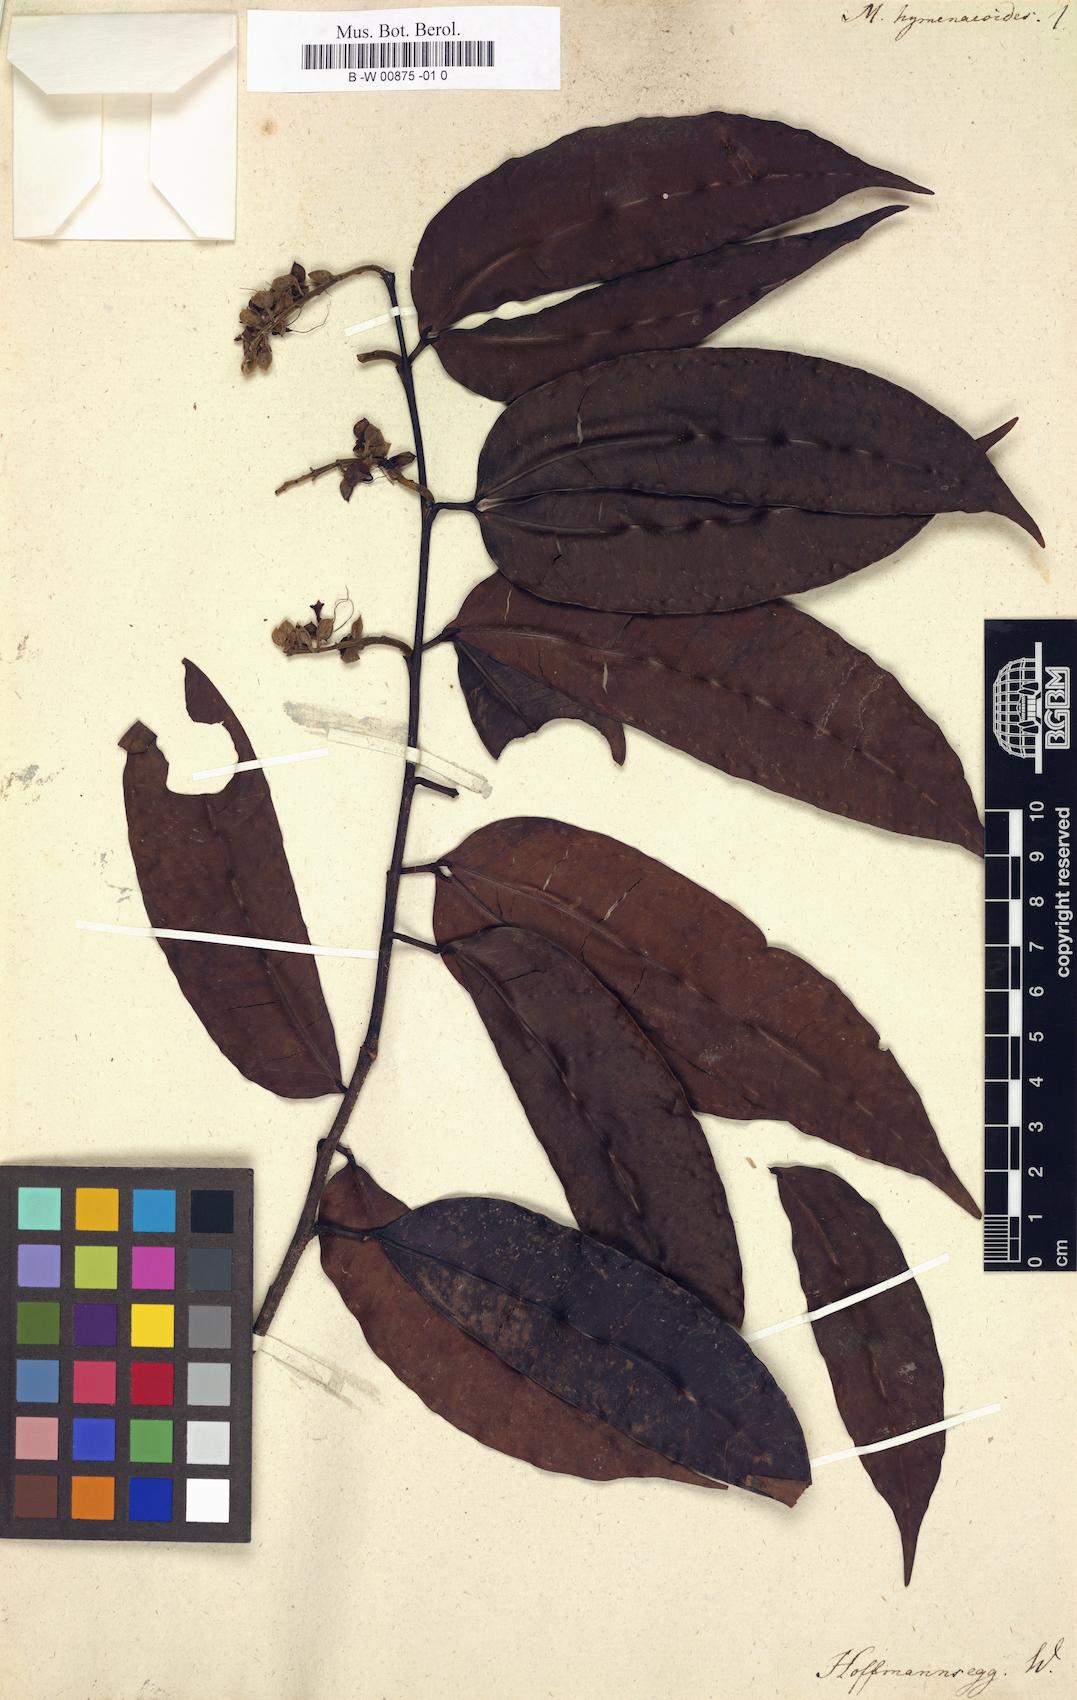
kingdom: Plantae
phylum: Tracheophyta
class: Magnoliopsida
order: Fabales
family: Fabaceae
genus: Macrolobium
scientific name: Macrolobium bifolium
